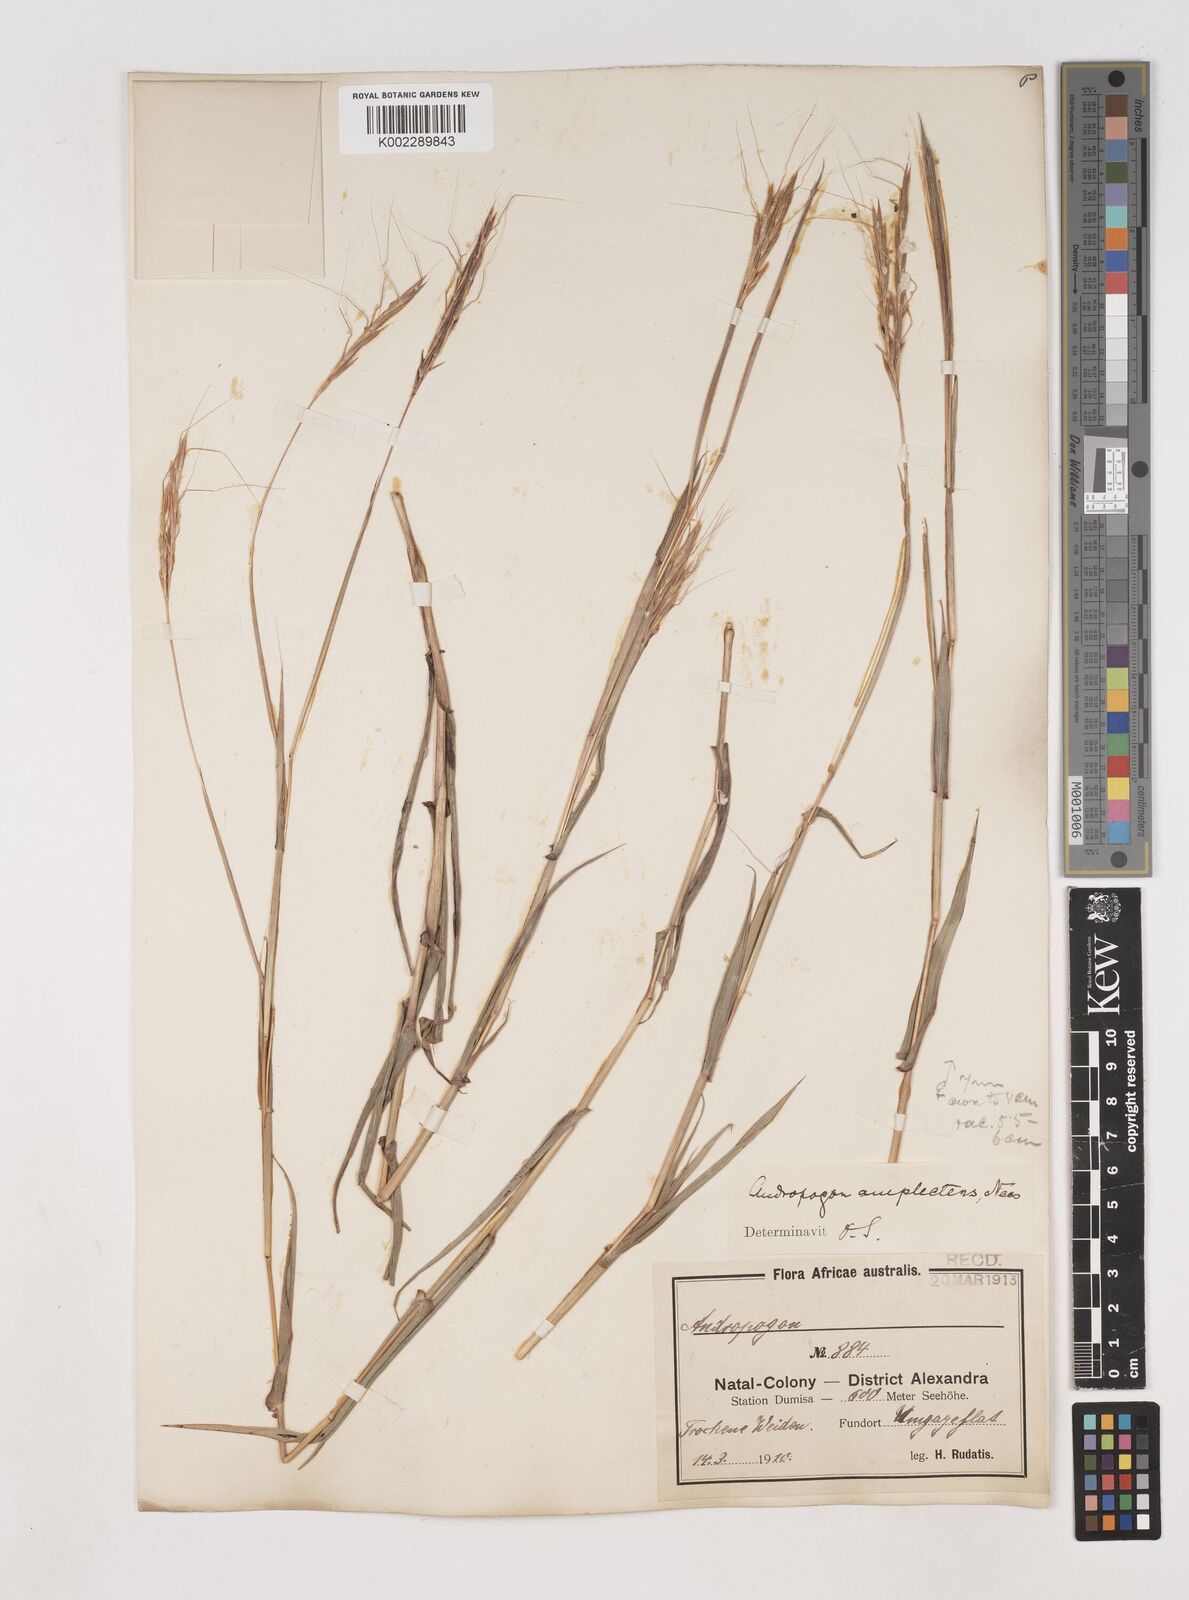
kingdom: Plantae
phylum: Tracheophyta
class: Liliopsida
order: Poales
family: Poaceae
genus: Diheteropogon
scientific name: Diheteropogon amplectens
